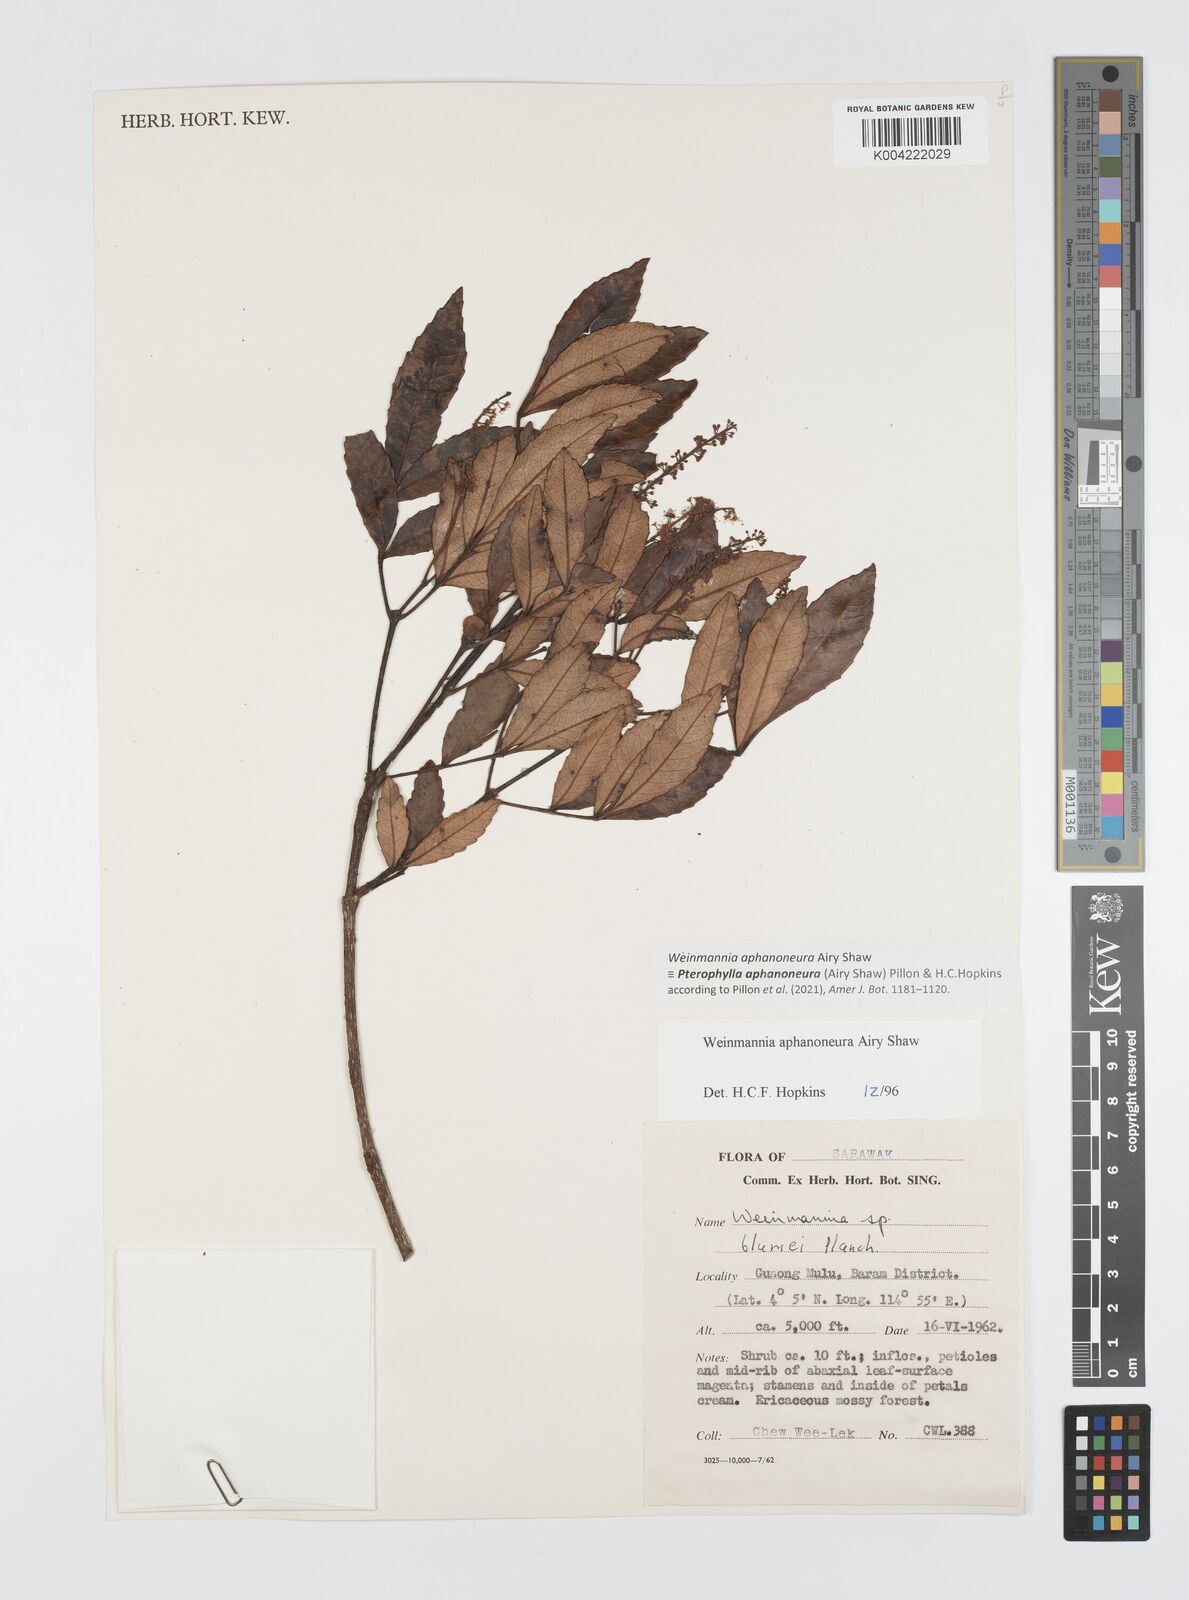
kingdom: Plantae
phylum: Tracheophyta
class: Magnoliopsida
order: Oxalidales
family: Cunoniaceae
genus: Pterophylla
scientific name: Pterophylla aphanoneura
